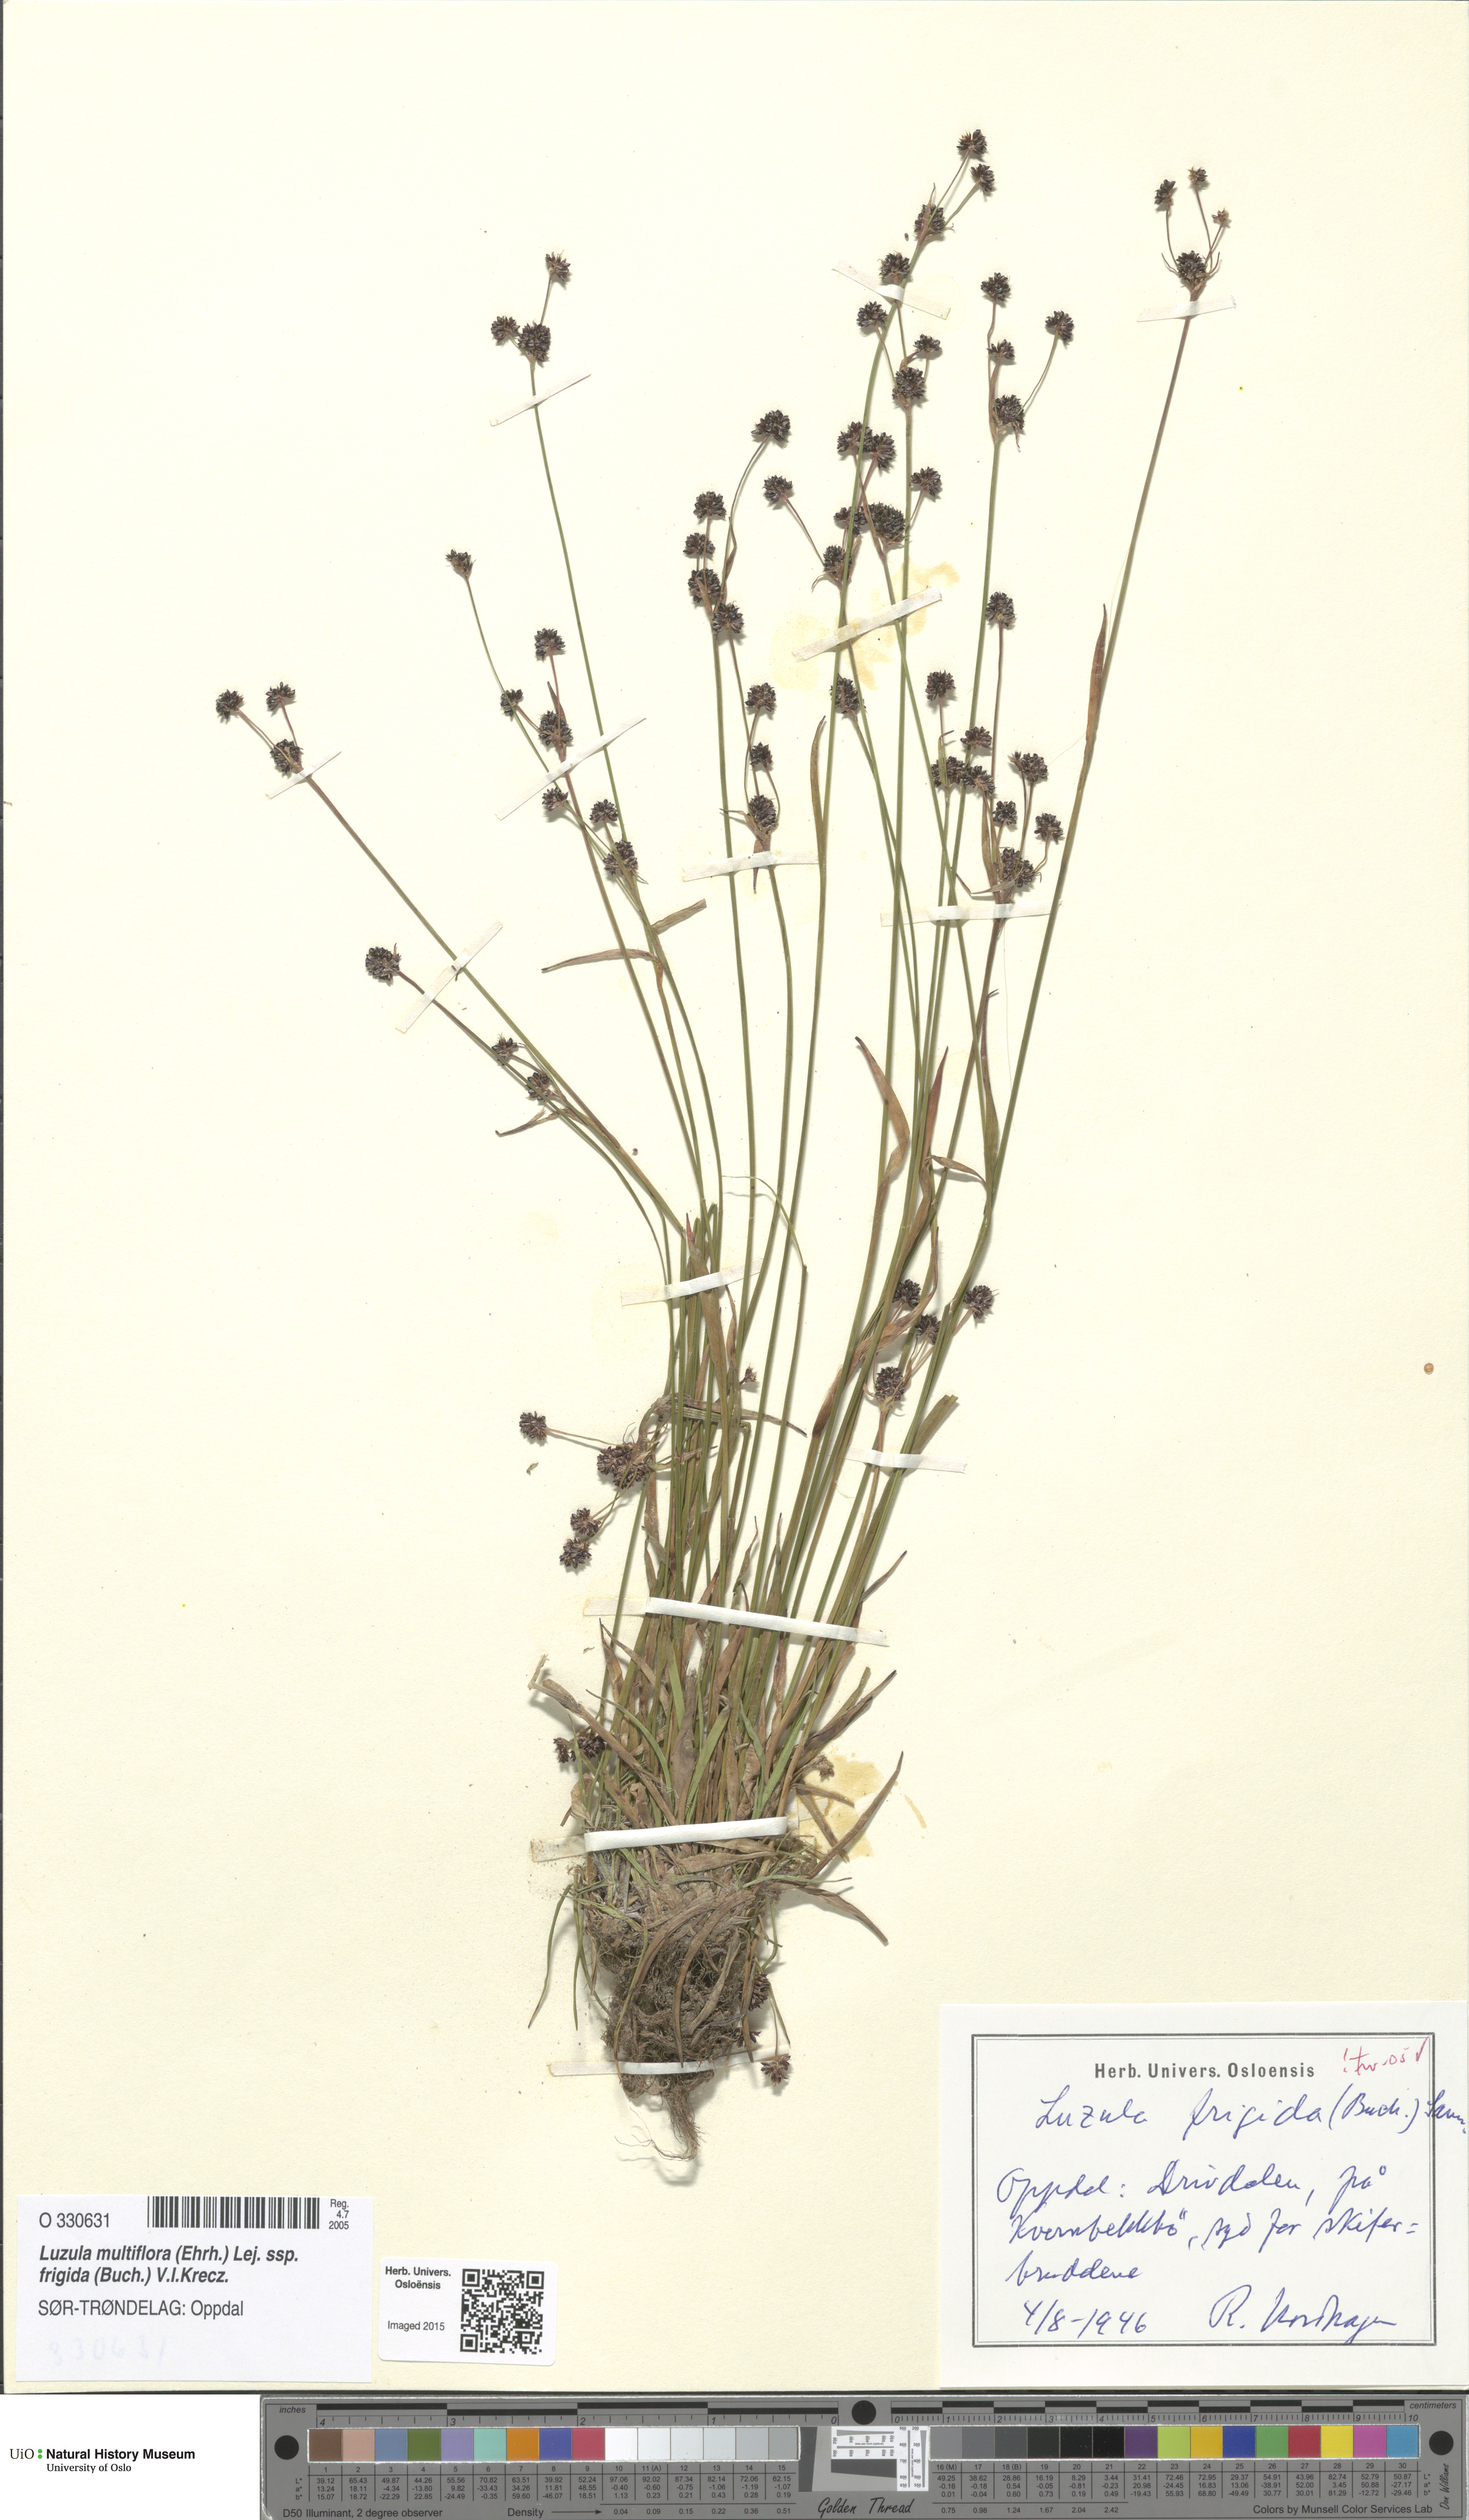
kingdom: Plantae
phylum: Tracheophyta
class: Liliopsida
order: Poales
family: Juncaceae
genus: Luzula
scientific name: Luzula multiflora
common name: Heath wood-rush
